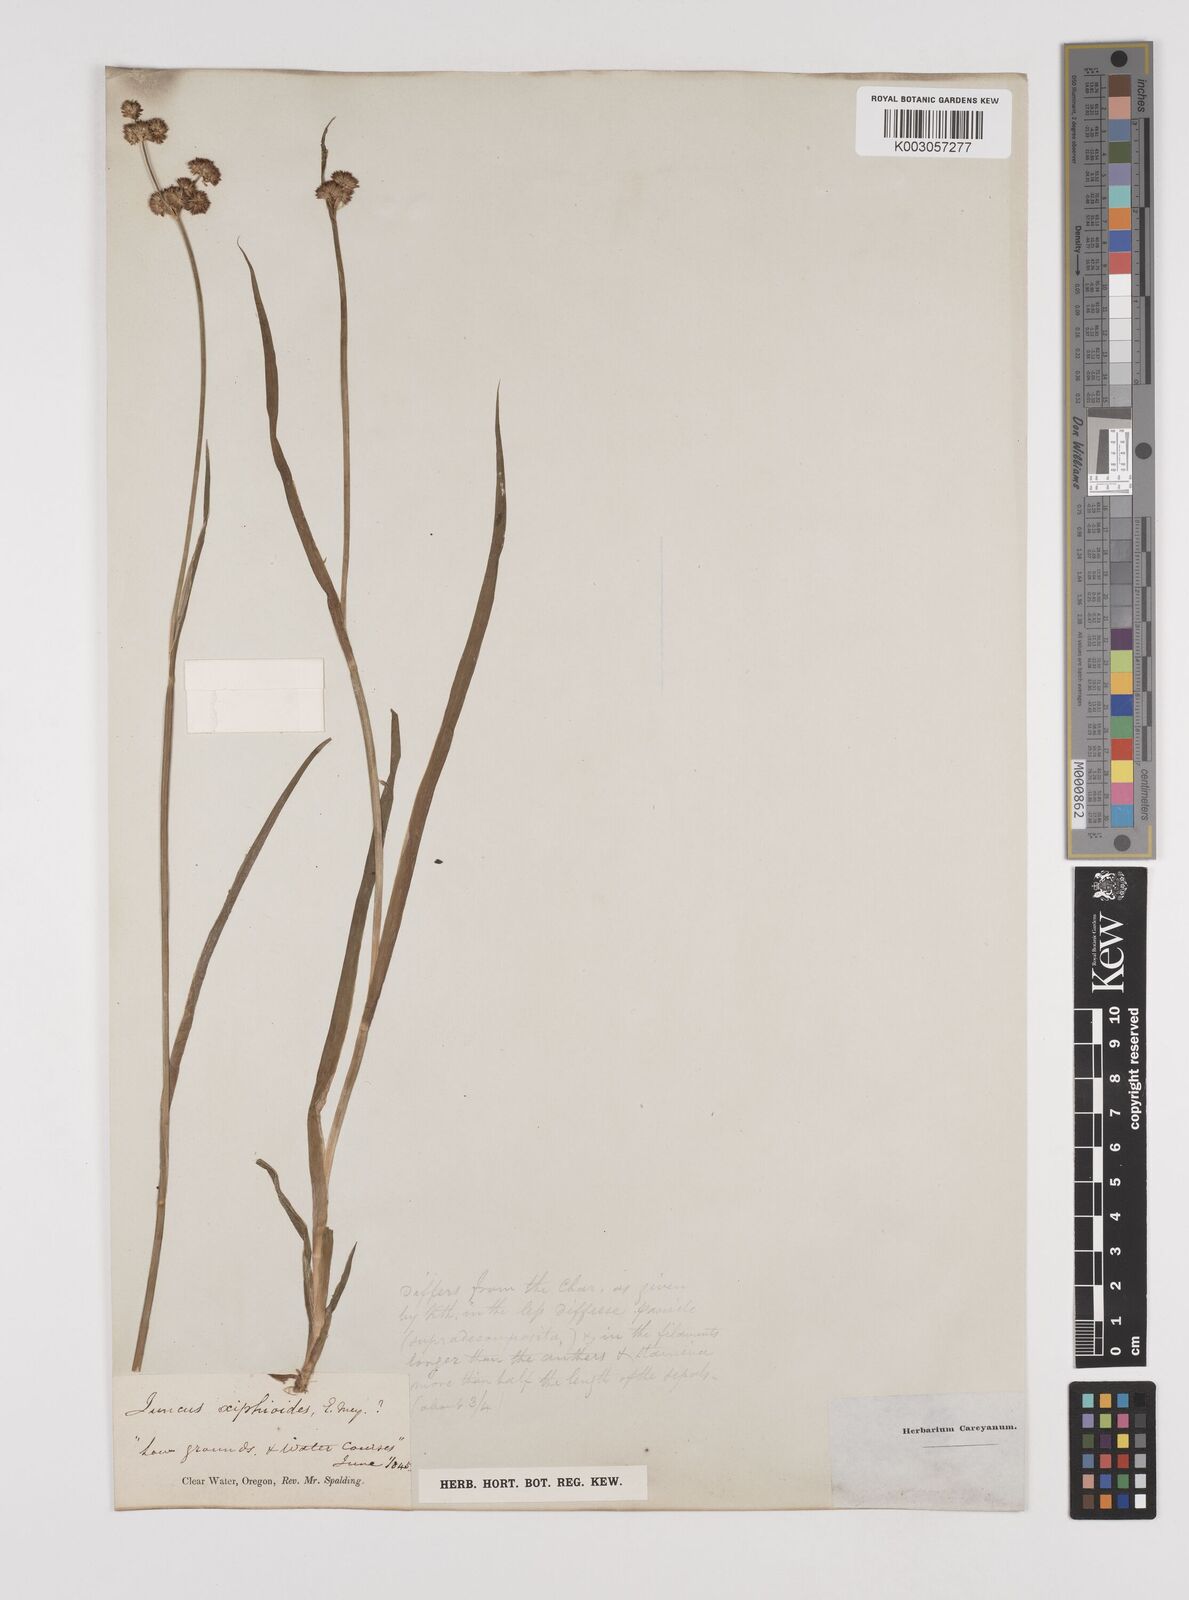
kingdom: Plantae
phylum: Tracheophyta
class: Liliopsida
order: Poales
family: Juncaceae
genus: Juncus
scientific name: Juncus xiphioides
